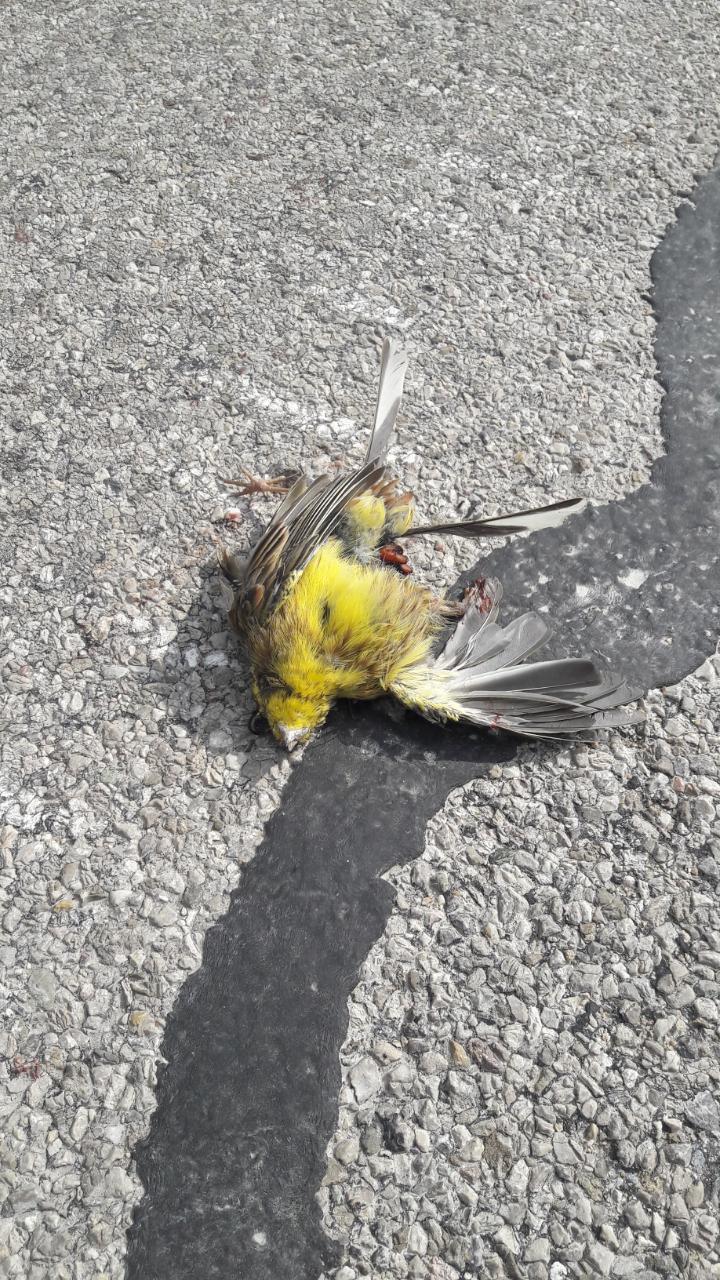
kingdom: Animalia
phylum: Chordata
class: Aves
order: Passeriformes
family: Emberizidae
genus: Emberiza
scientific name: Emberiza citrinella
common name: Yellowhammer
